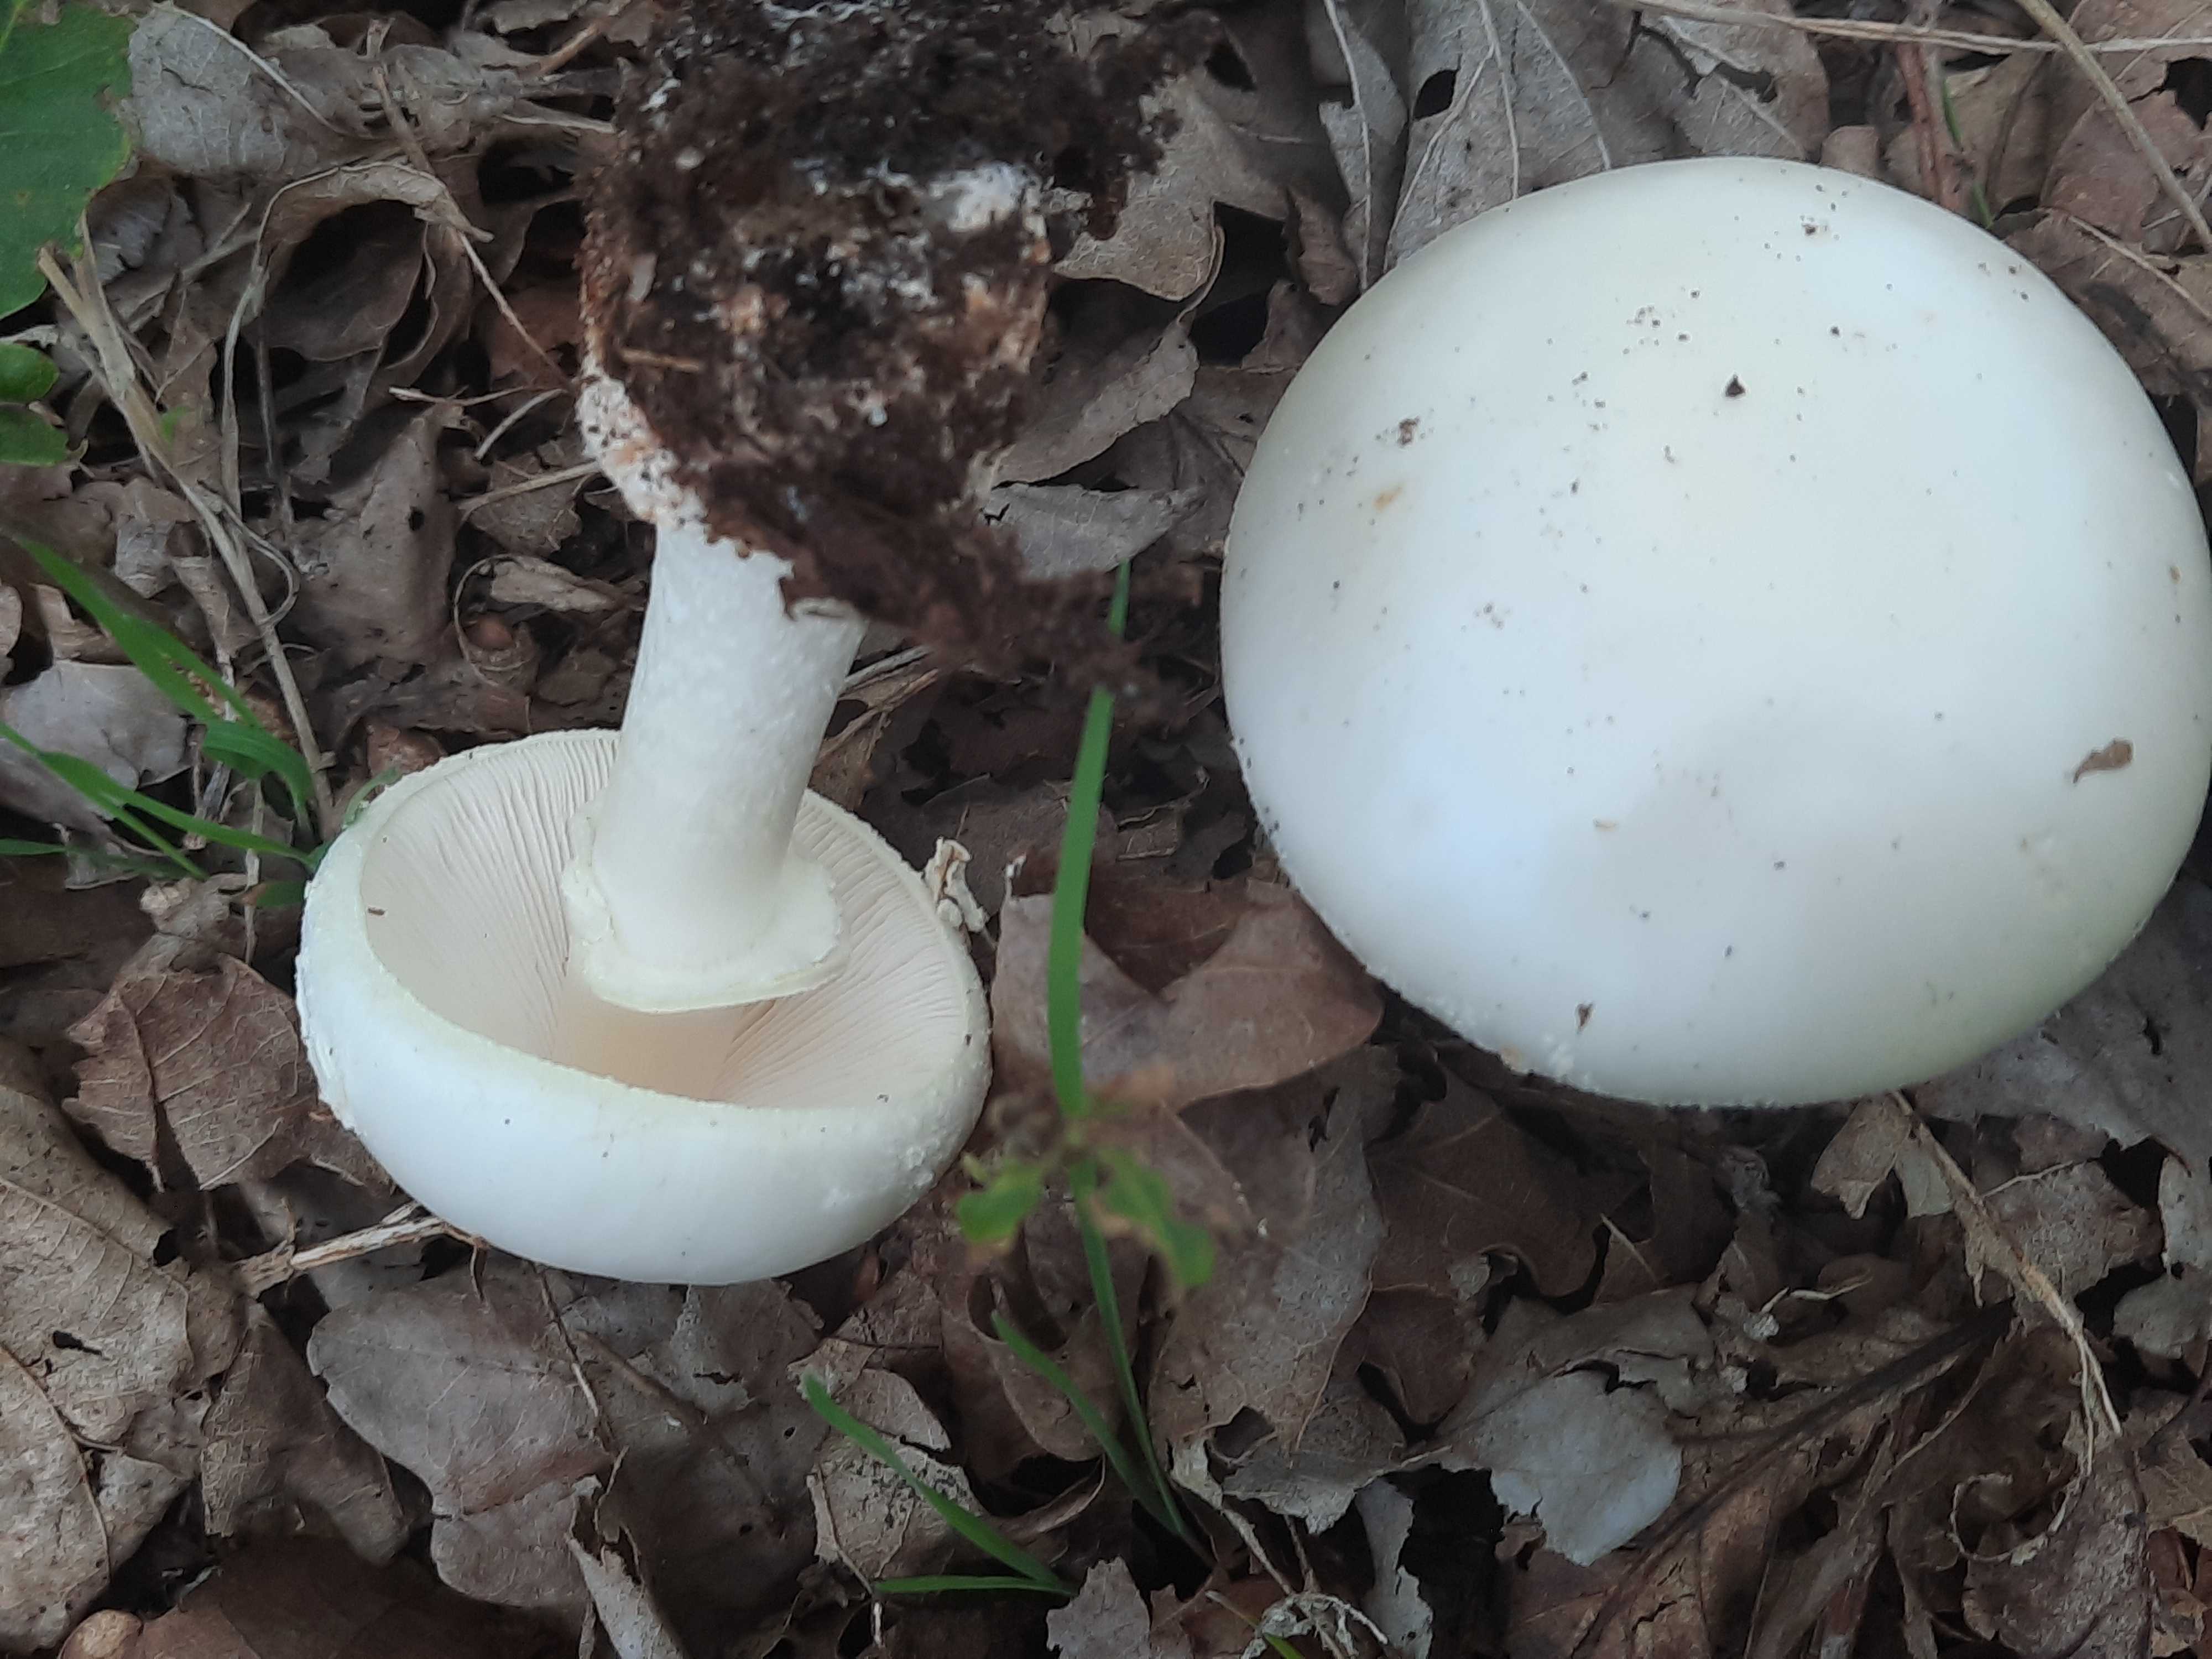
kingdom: Fungi
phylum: Basidiomycota
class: Agaricomycetes
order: Agaricales
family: Amanitaceae
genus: Amanita
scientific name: Amanita citrina
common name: False death-cap
